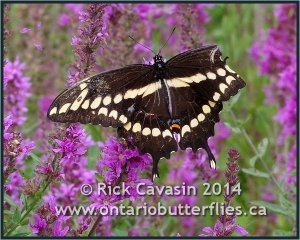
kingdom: Animalia
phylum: Arthropoda
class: Insecta
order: Lepidoptera
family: Papilionidae
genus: Papilio
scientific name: Papilio cresphontes
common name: Eastern Giant Swallowtail
